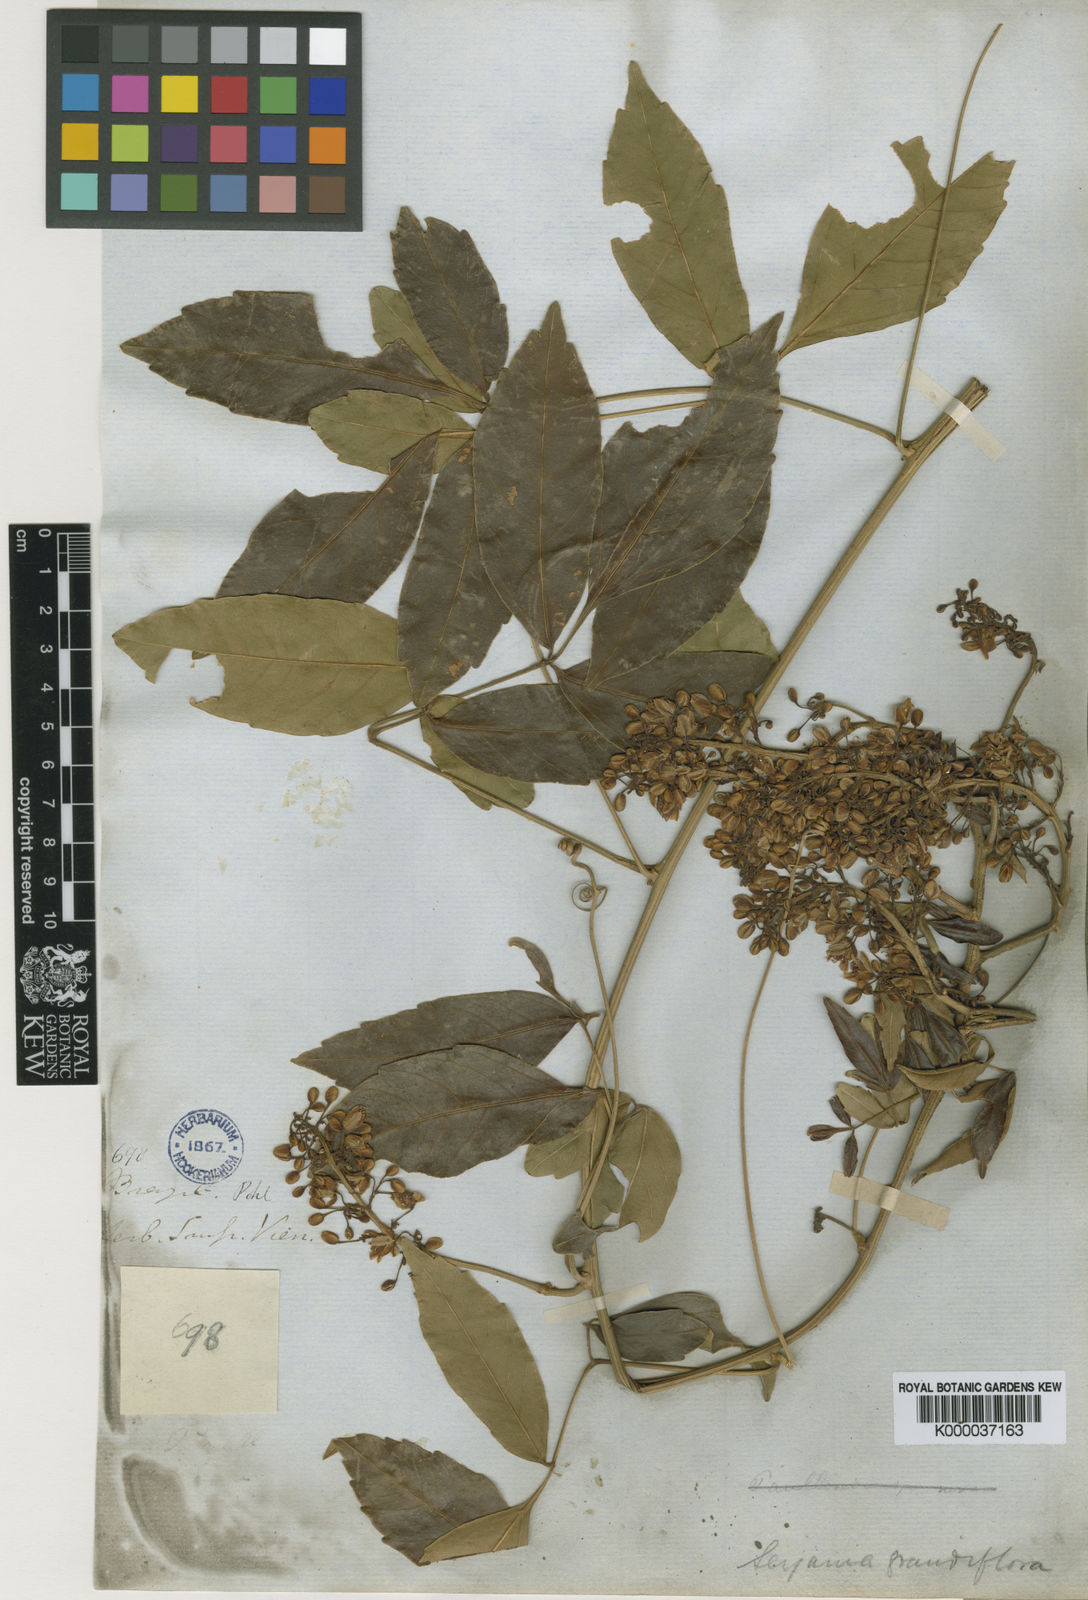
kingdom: Plantae
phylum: Tracheophyta
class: Magnoliopsida
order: Sapindales
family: Sapindaceae
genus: Serjania
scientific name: Serjania caracasana
